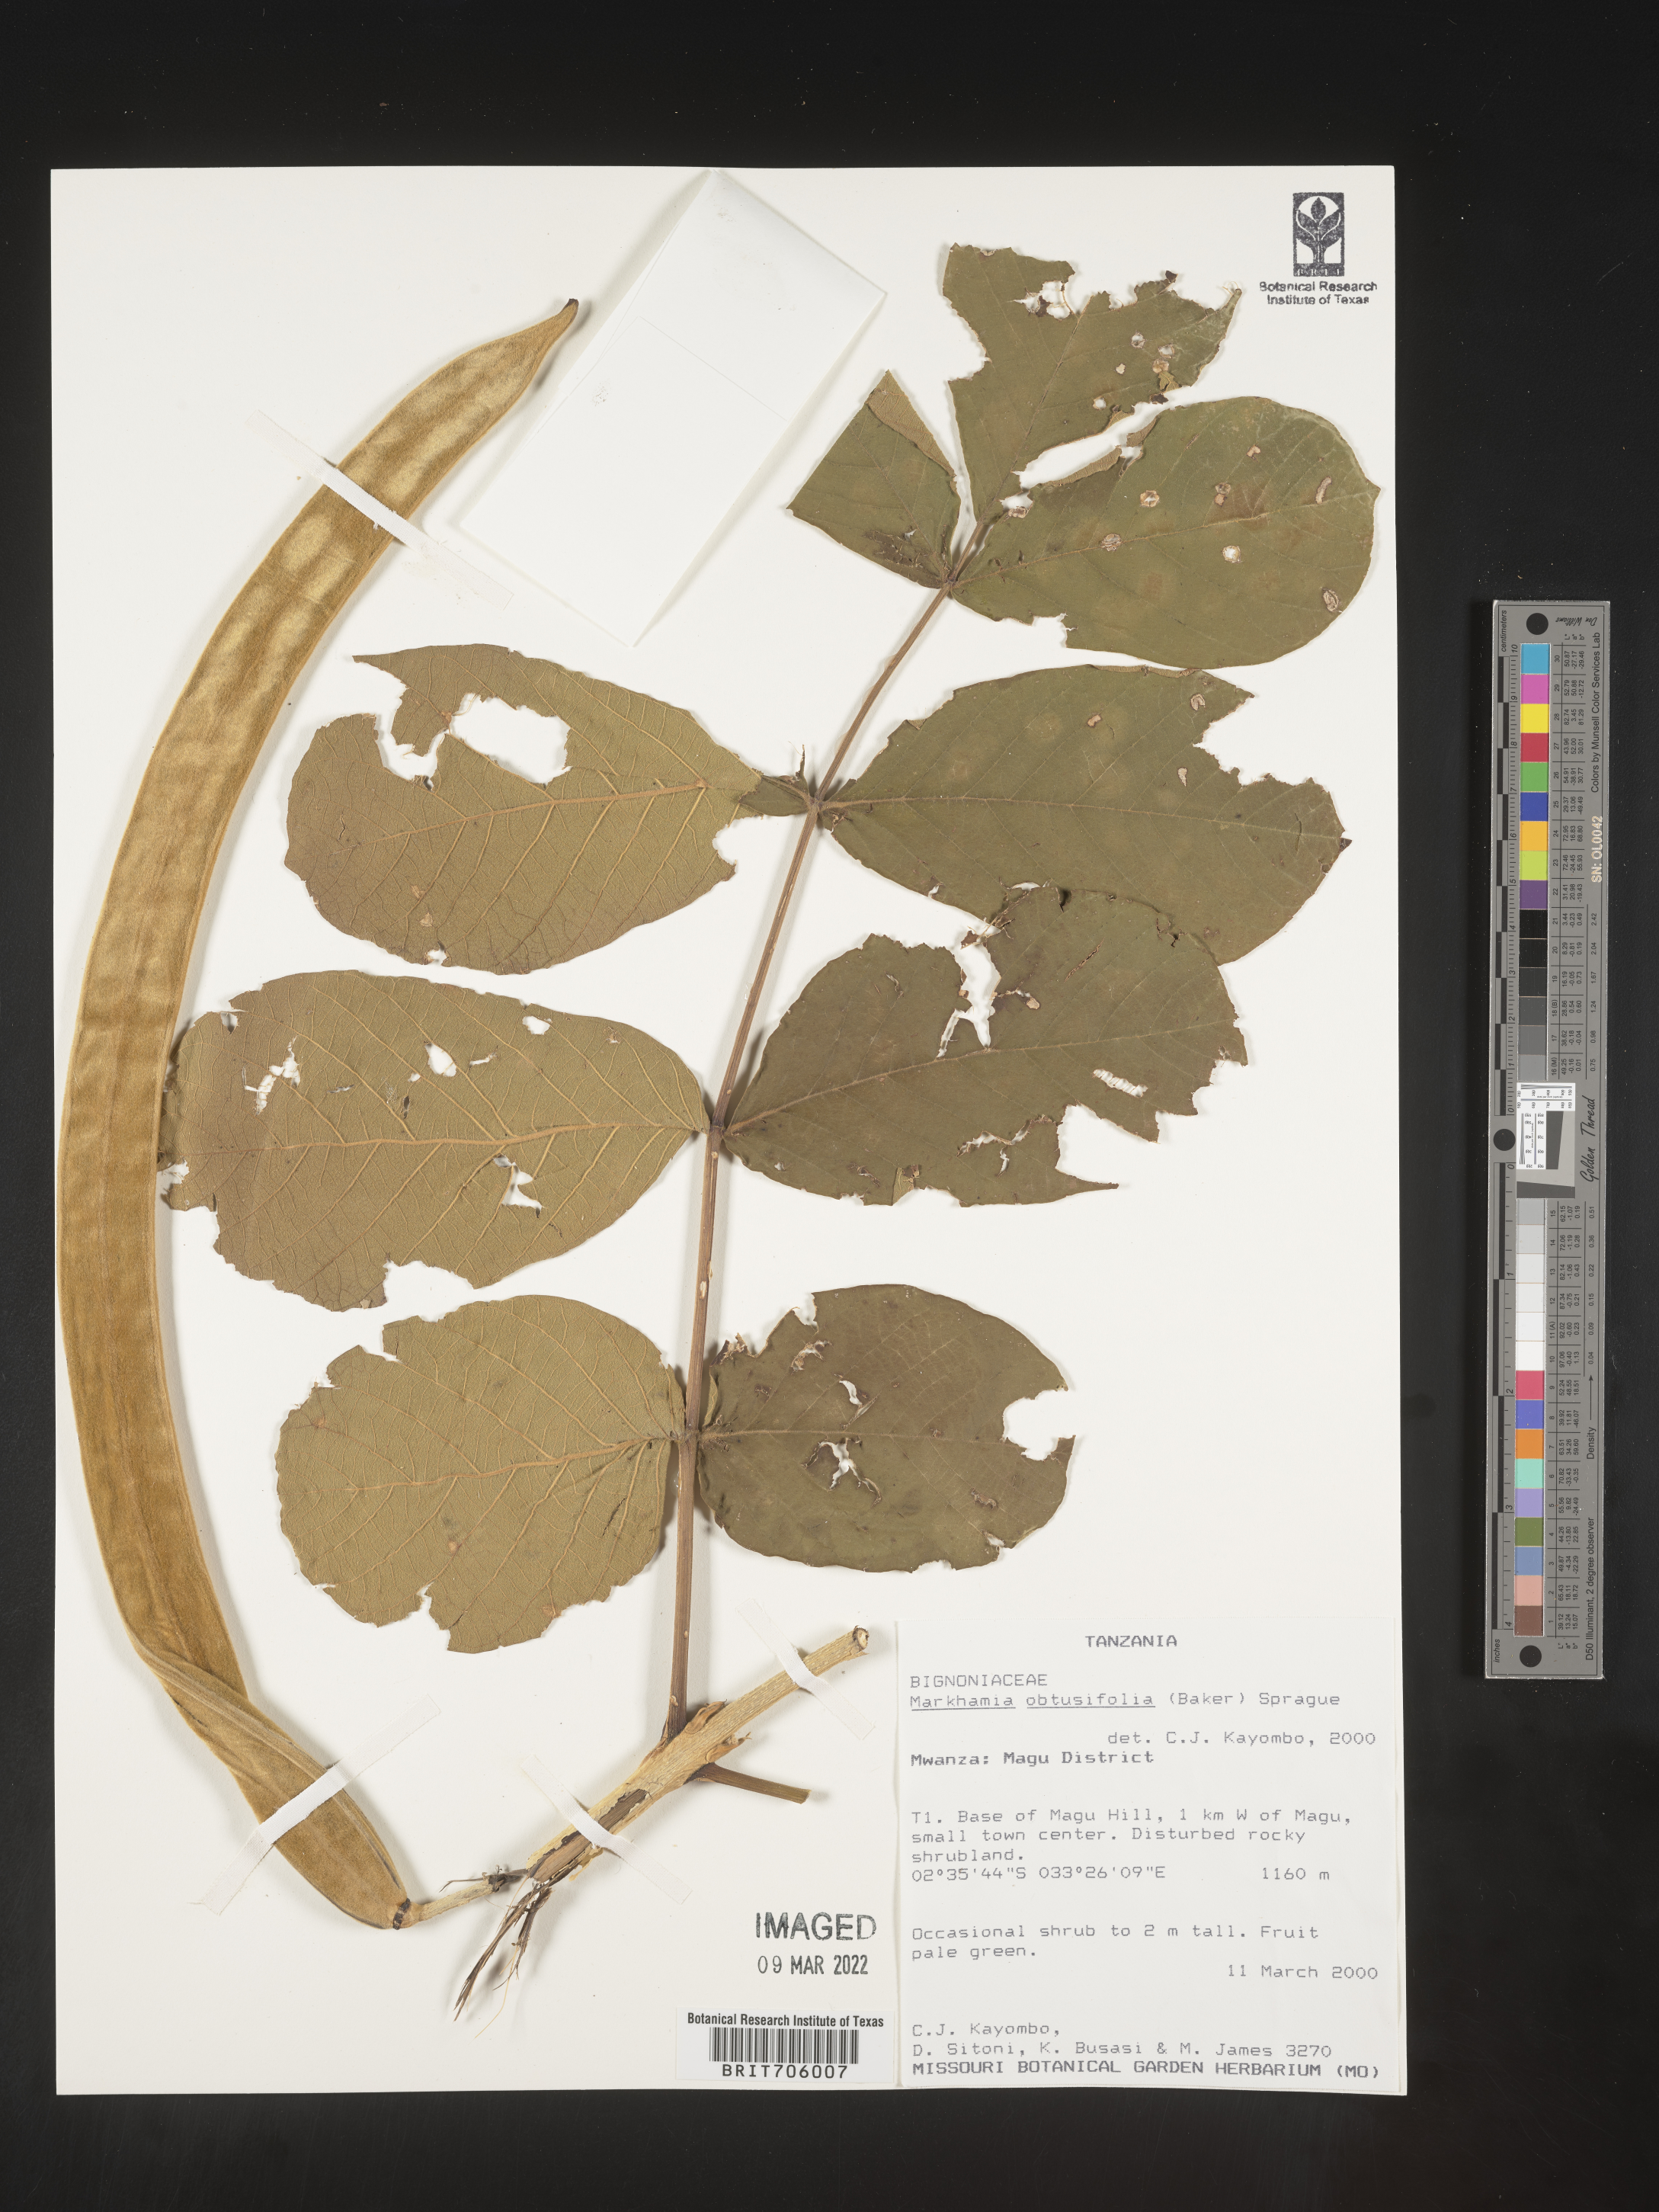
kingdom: Plantae
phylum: Tracheophyta
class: Magnoliopsida
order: Lamiales
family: Bignoniaceae
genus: Markhamia
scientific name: Markhamia
